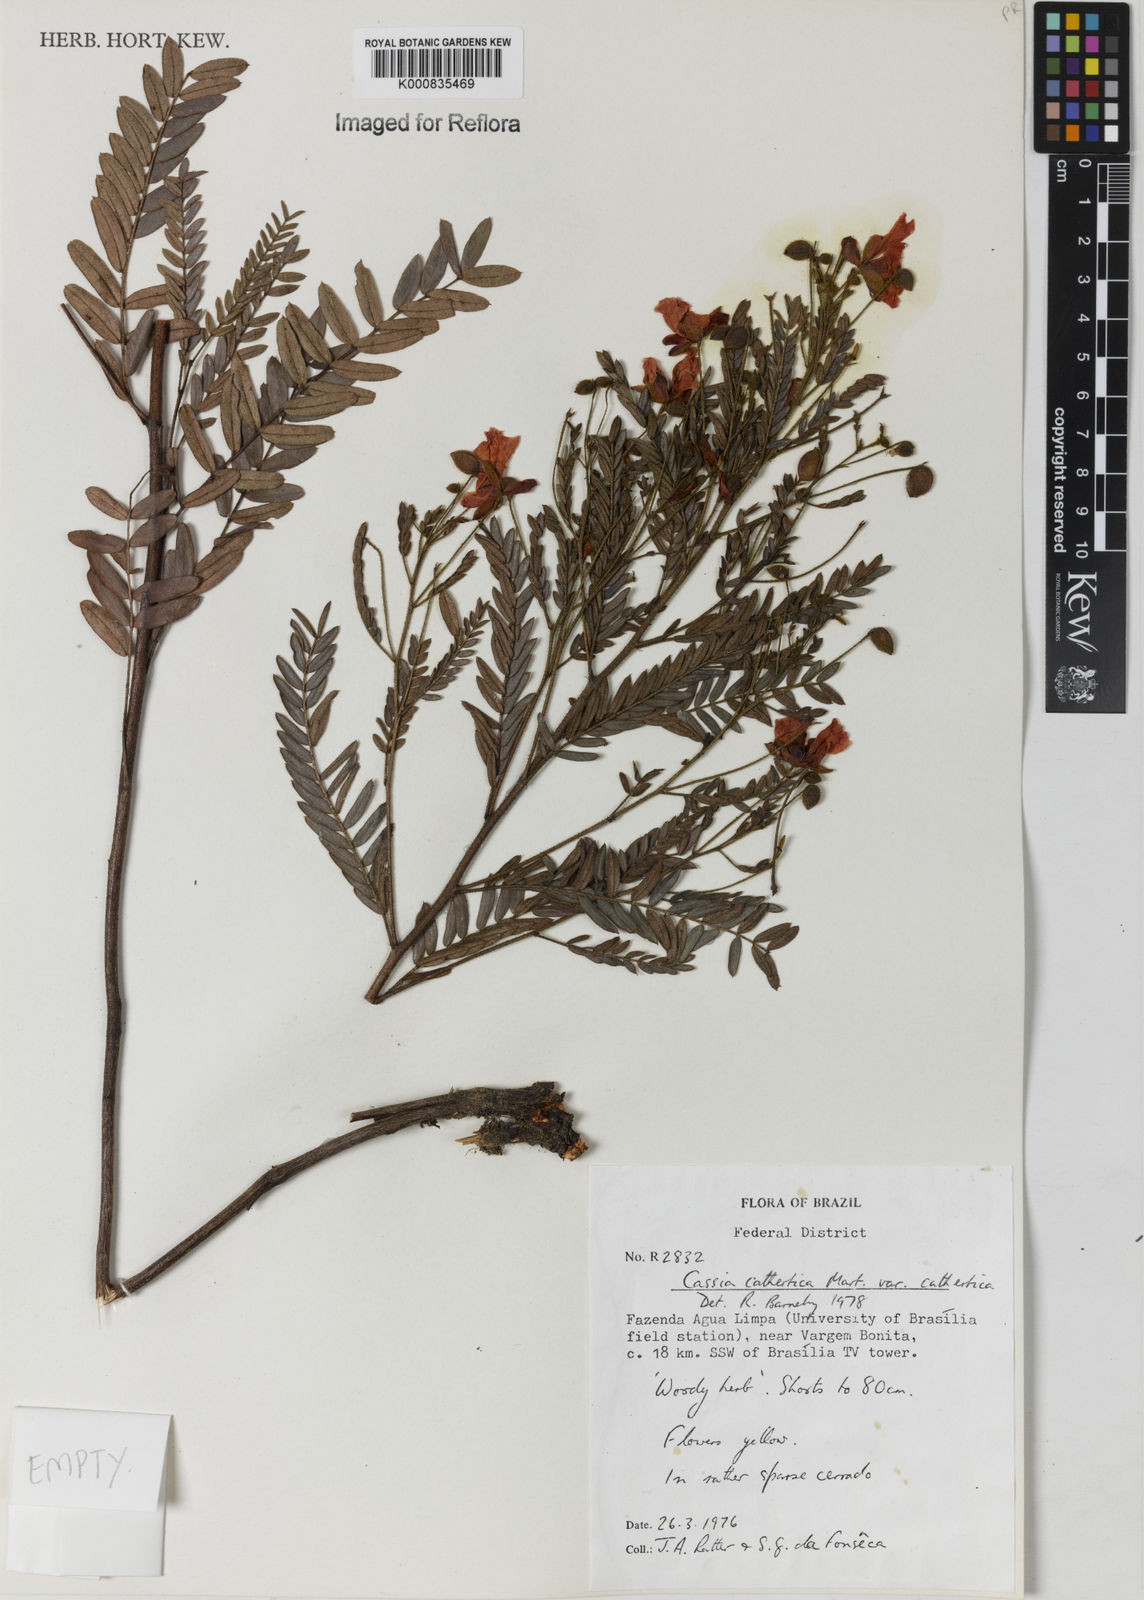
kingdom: Plantae
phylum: Tracheophyta
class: Magnoliopsida
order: Fabales
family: Fabaceae
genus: Chamaecrista
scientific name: Chamaecrista cathartica
